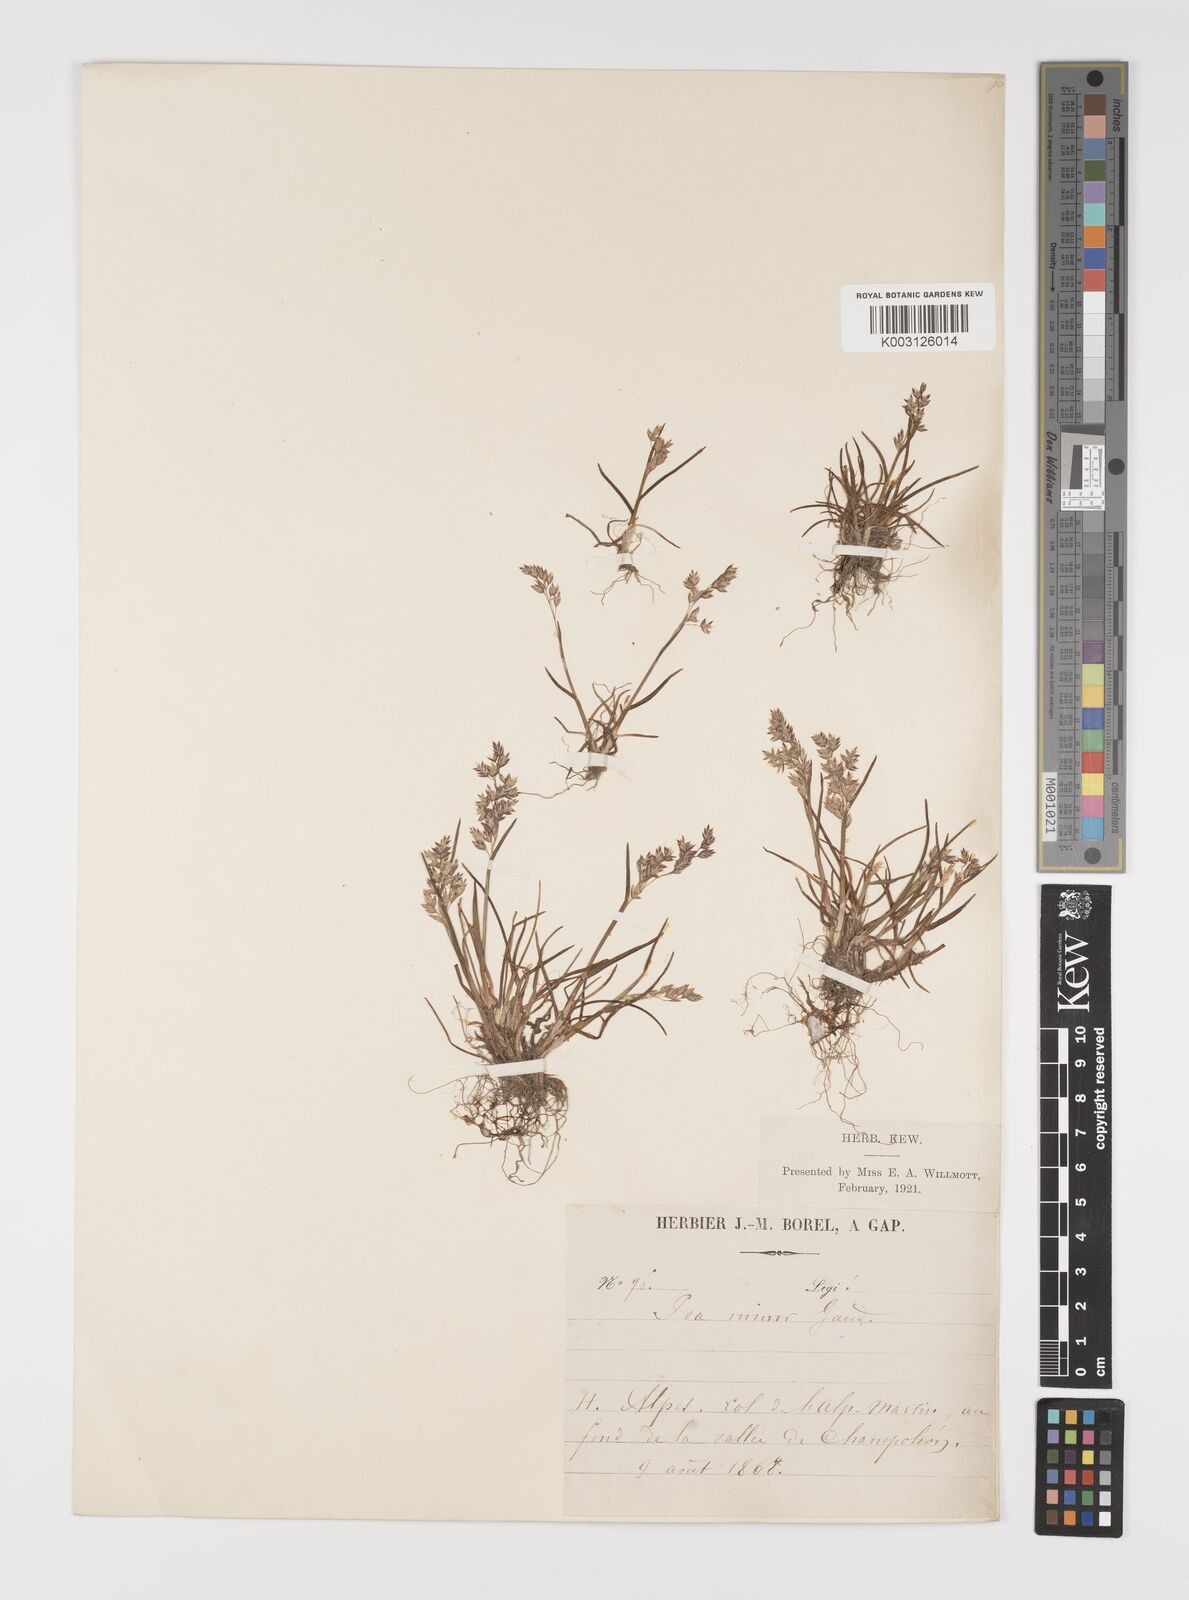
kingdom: Plantae
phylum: Tracheophyta
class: Liliopsida
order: Poales
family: Poaceae
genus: Poa
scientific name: Poa minor
